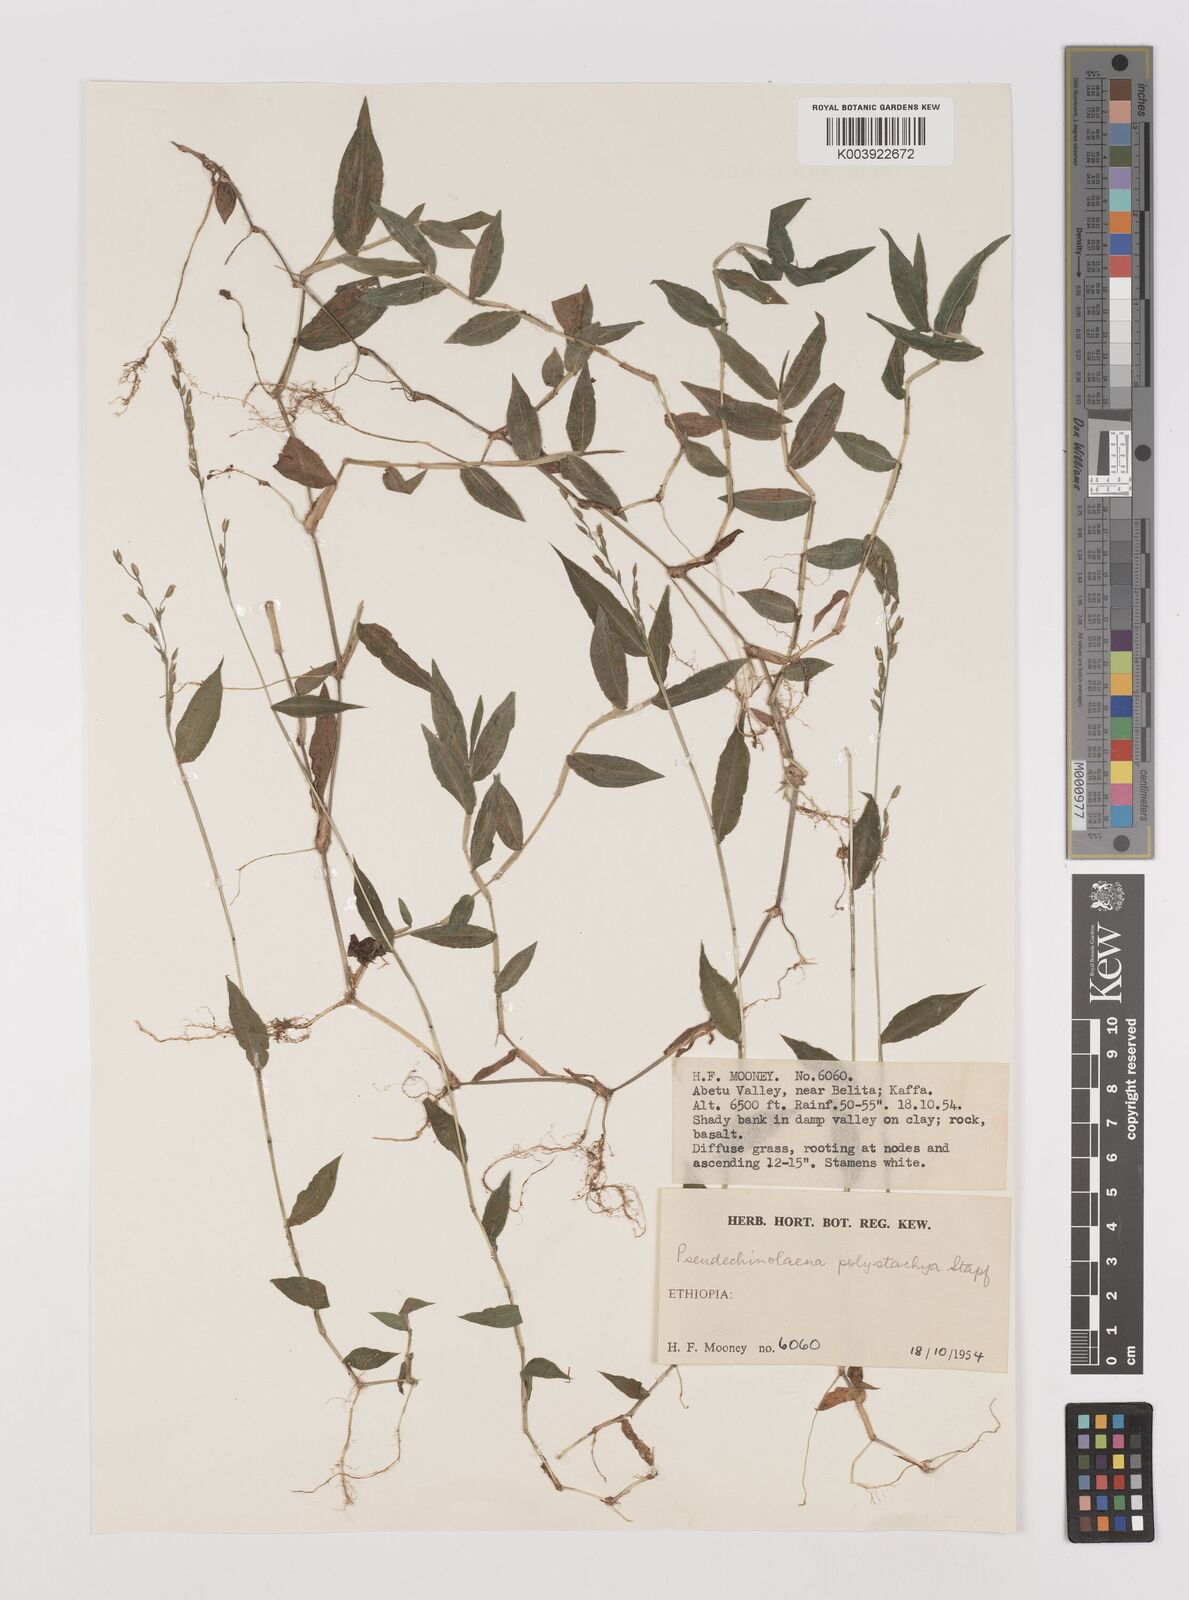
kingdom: Plantae
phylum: Tracheophyta
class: Liliopsida
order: Poales
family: Poaceae
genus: Pseudechinolaena
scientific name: Pseudechinolaena polystachya
